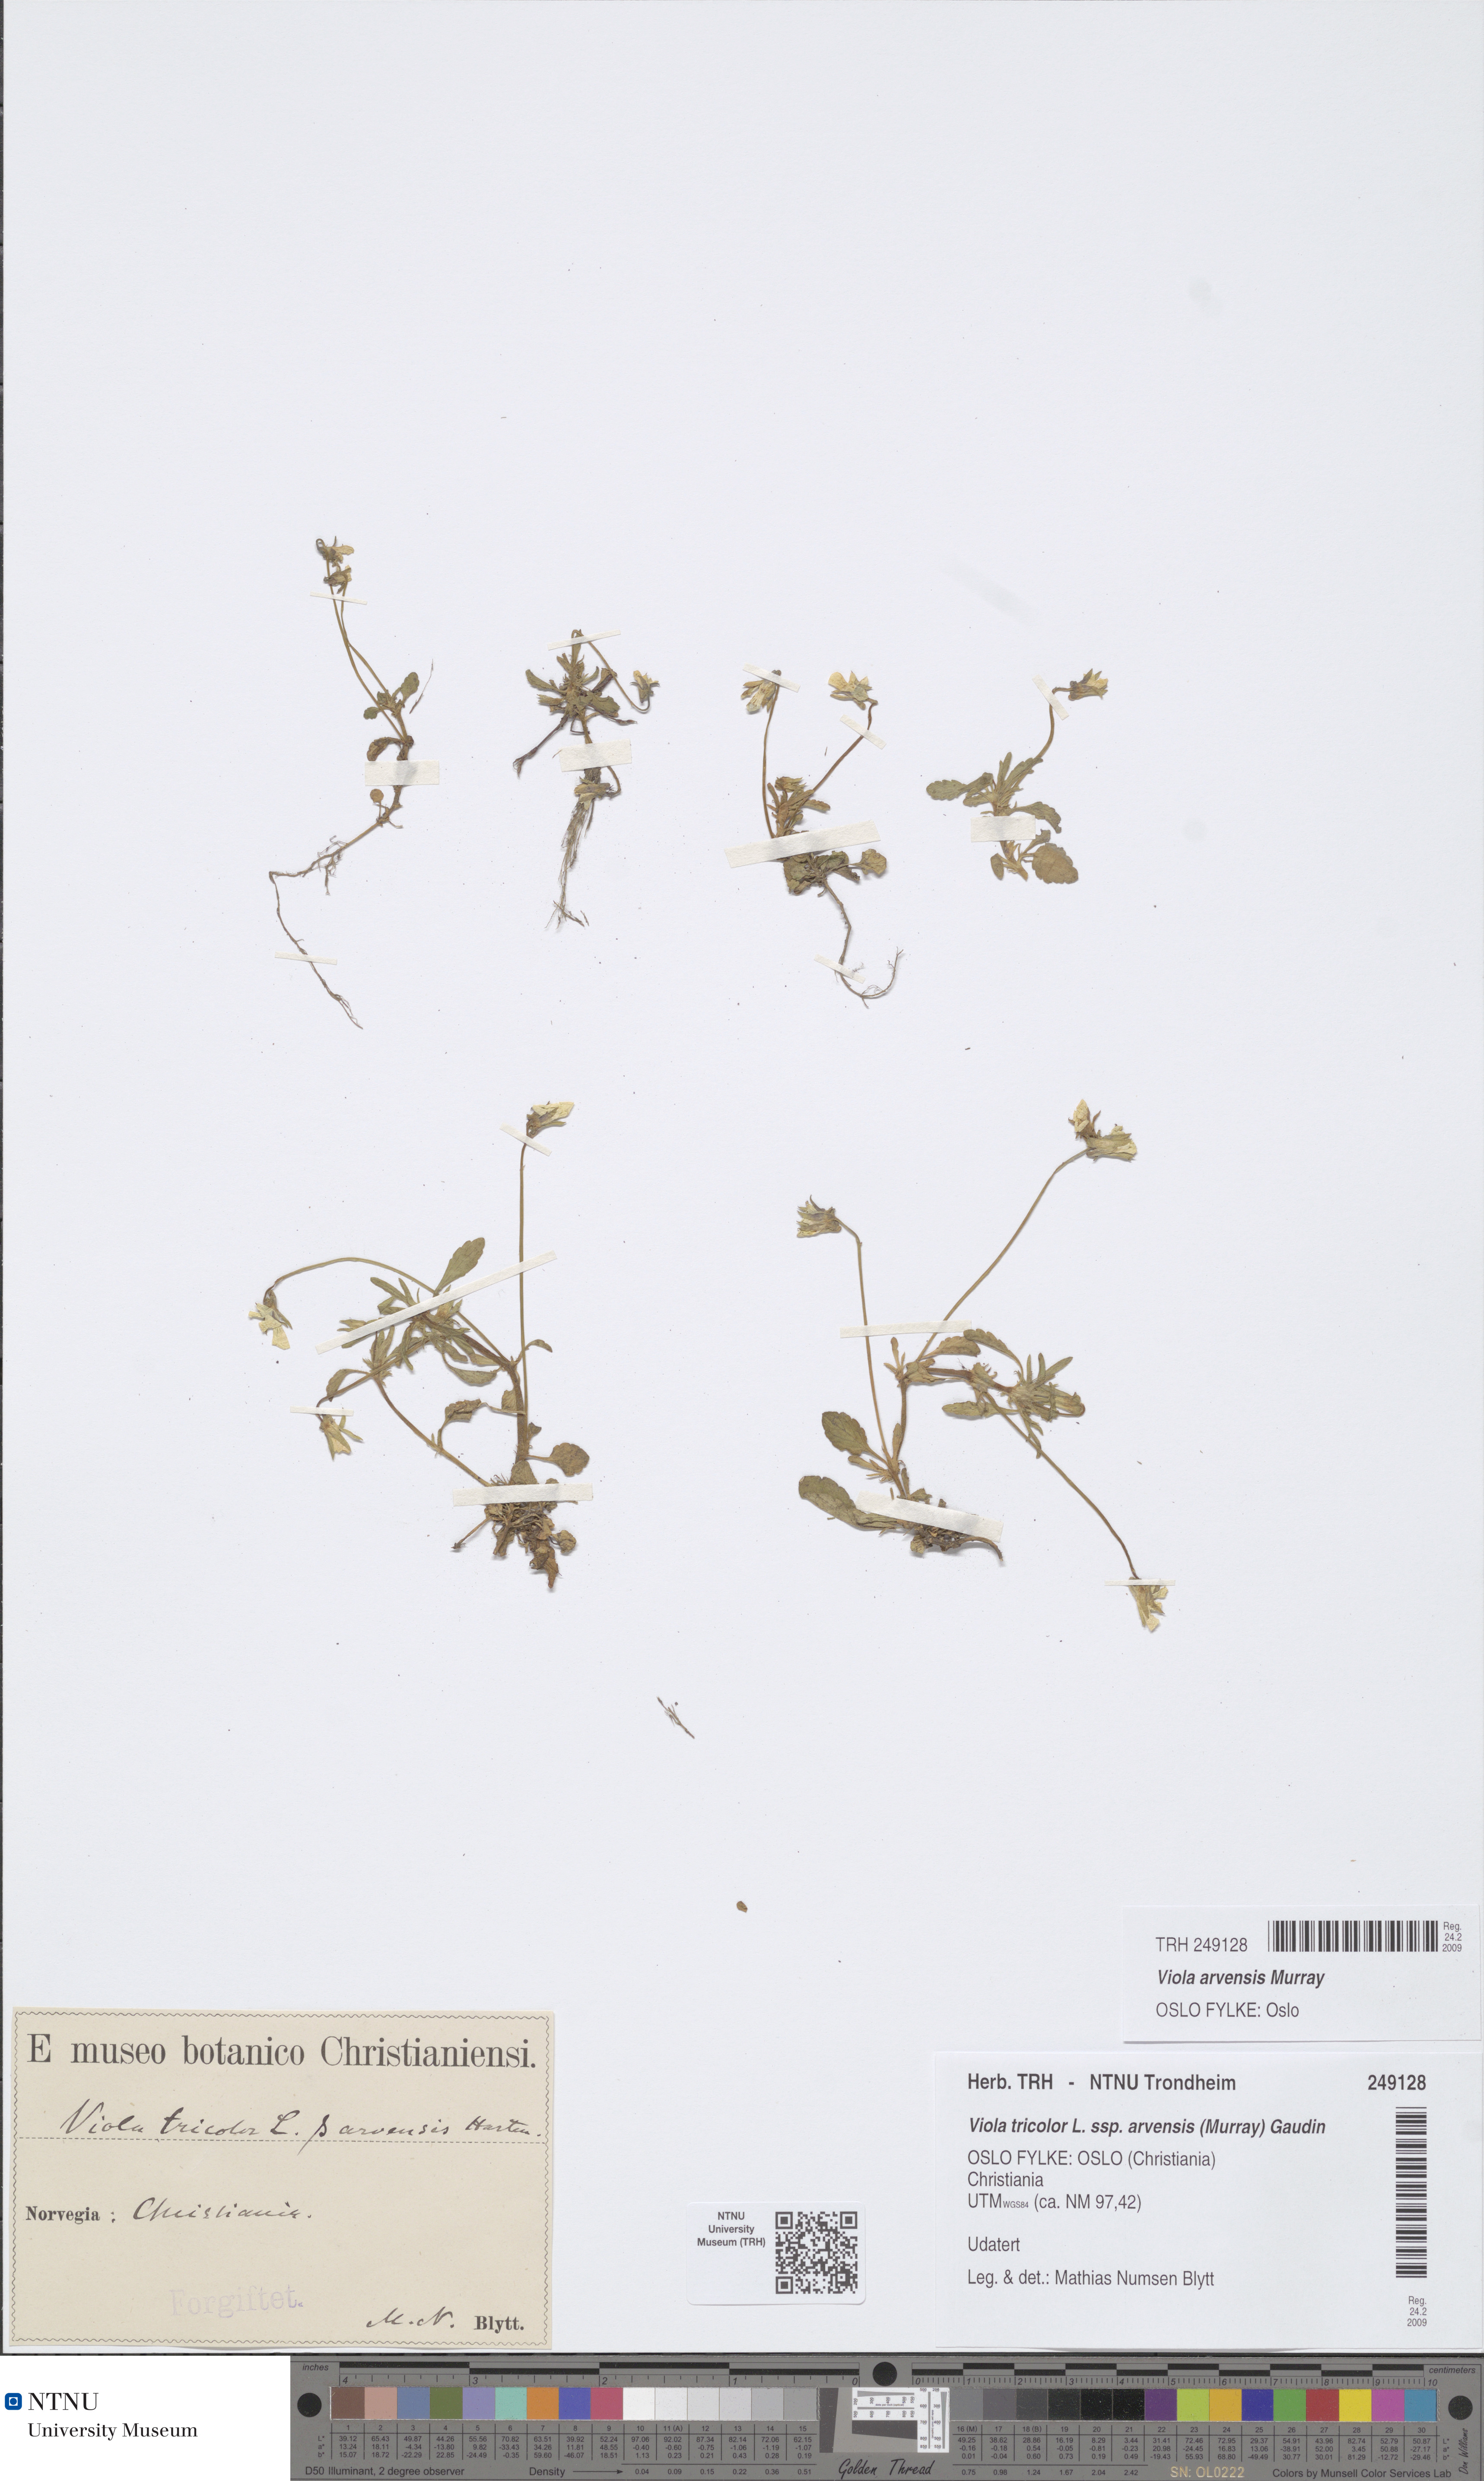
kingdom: Plantae
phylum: Tracheophyta
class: Magnoliopsida
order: Malpighiales
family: Violaceae
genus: Viola
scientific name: Viola arvensis
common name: Field pansy
